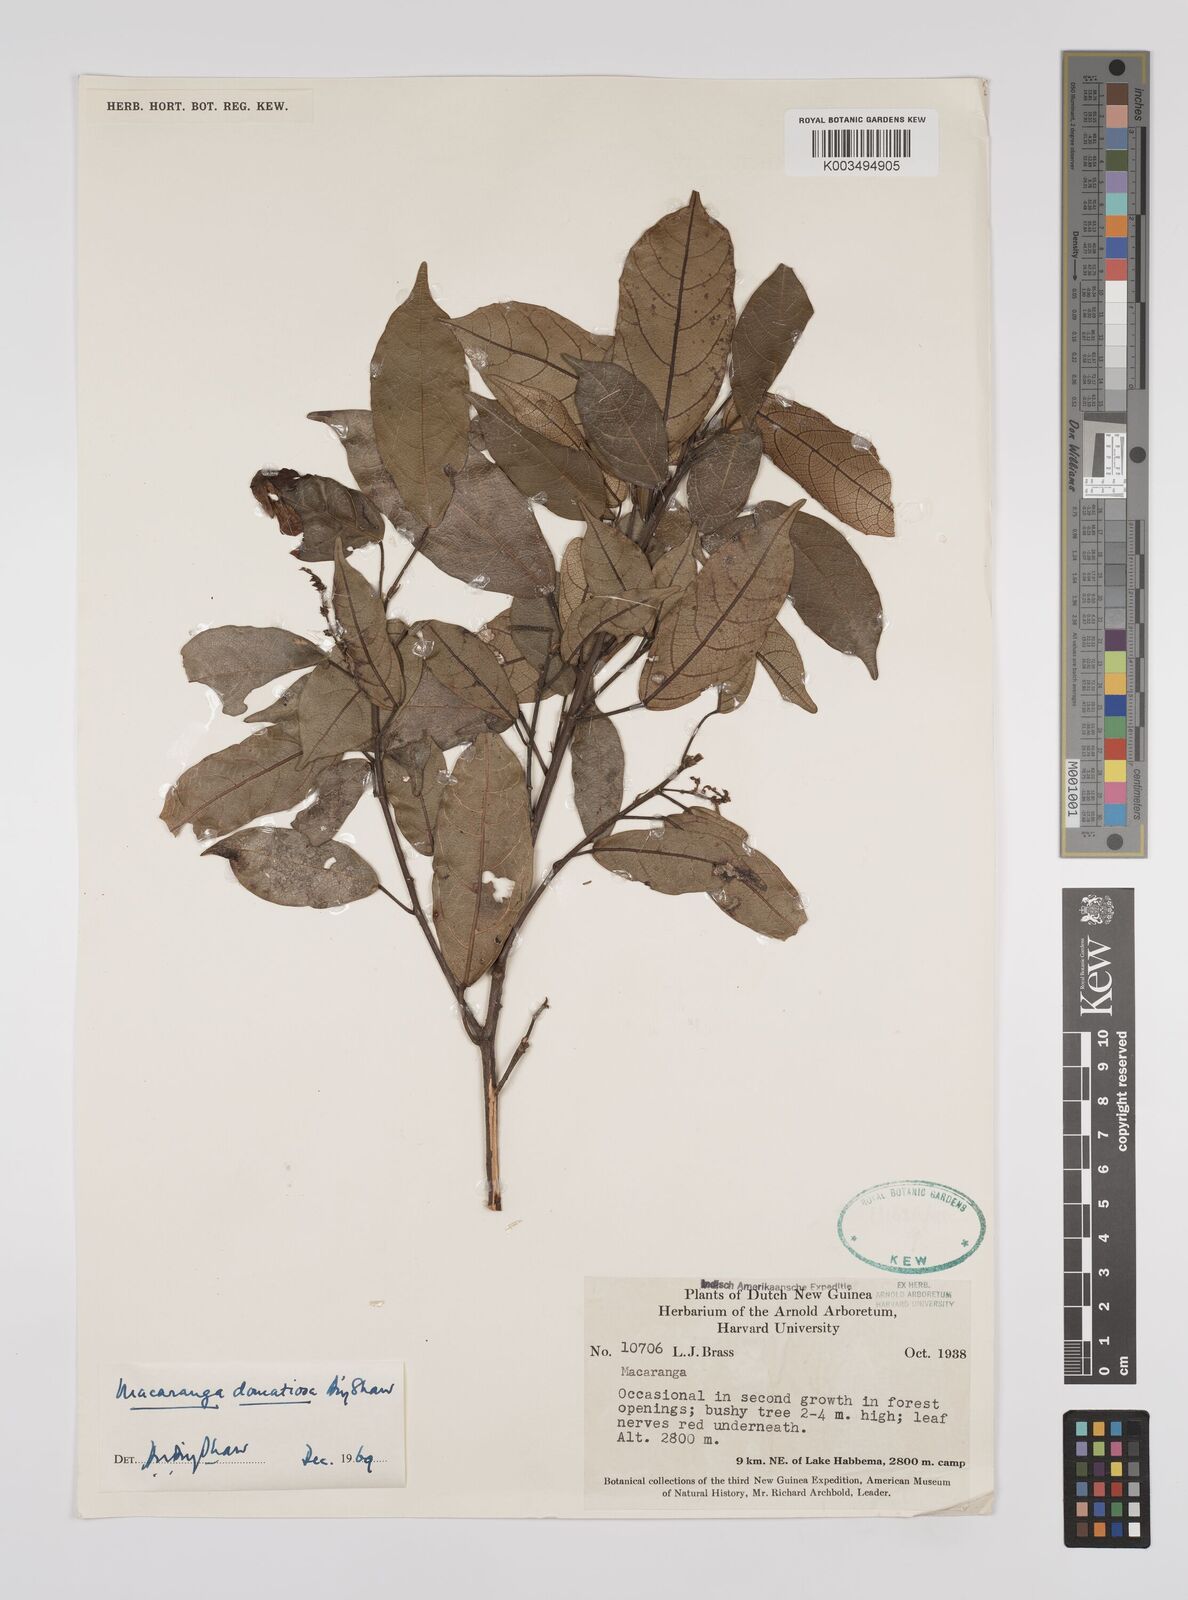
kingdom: Plantae
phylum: Tracheophyta
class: Magnoliopsida
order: Malpighiales
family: Euphorbiaceae
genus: Macaranga
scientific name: Macaranga domatiosa
